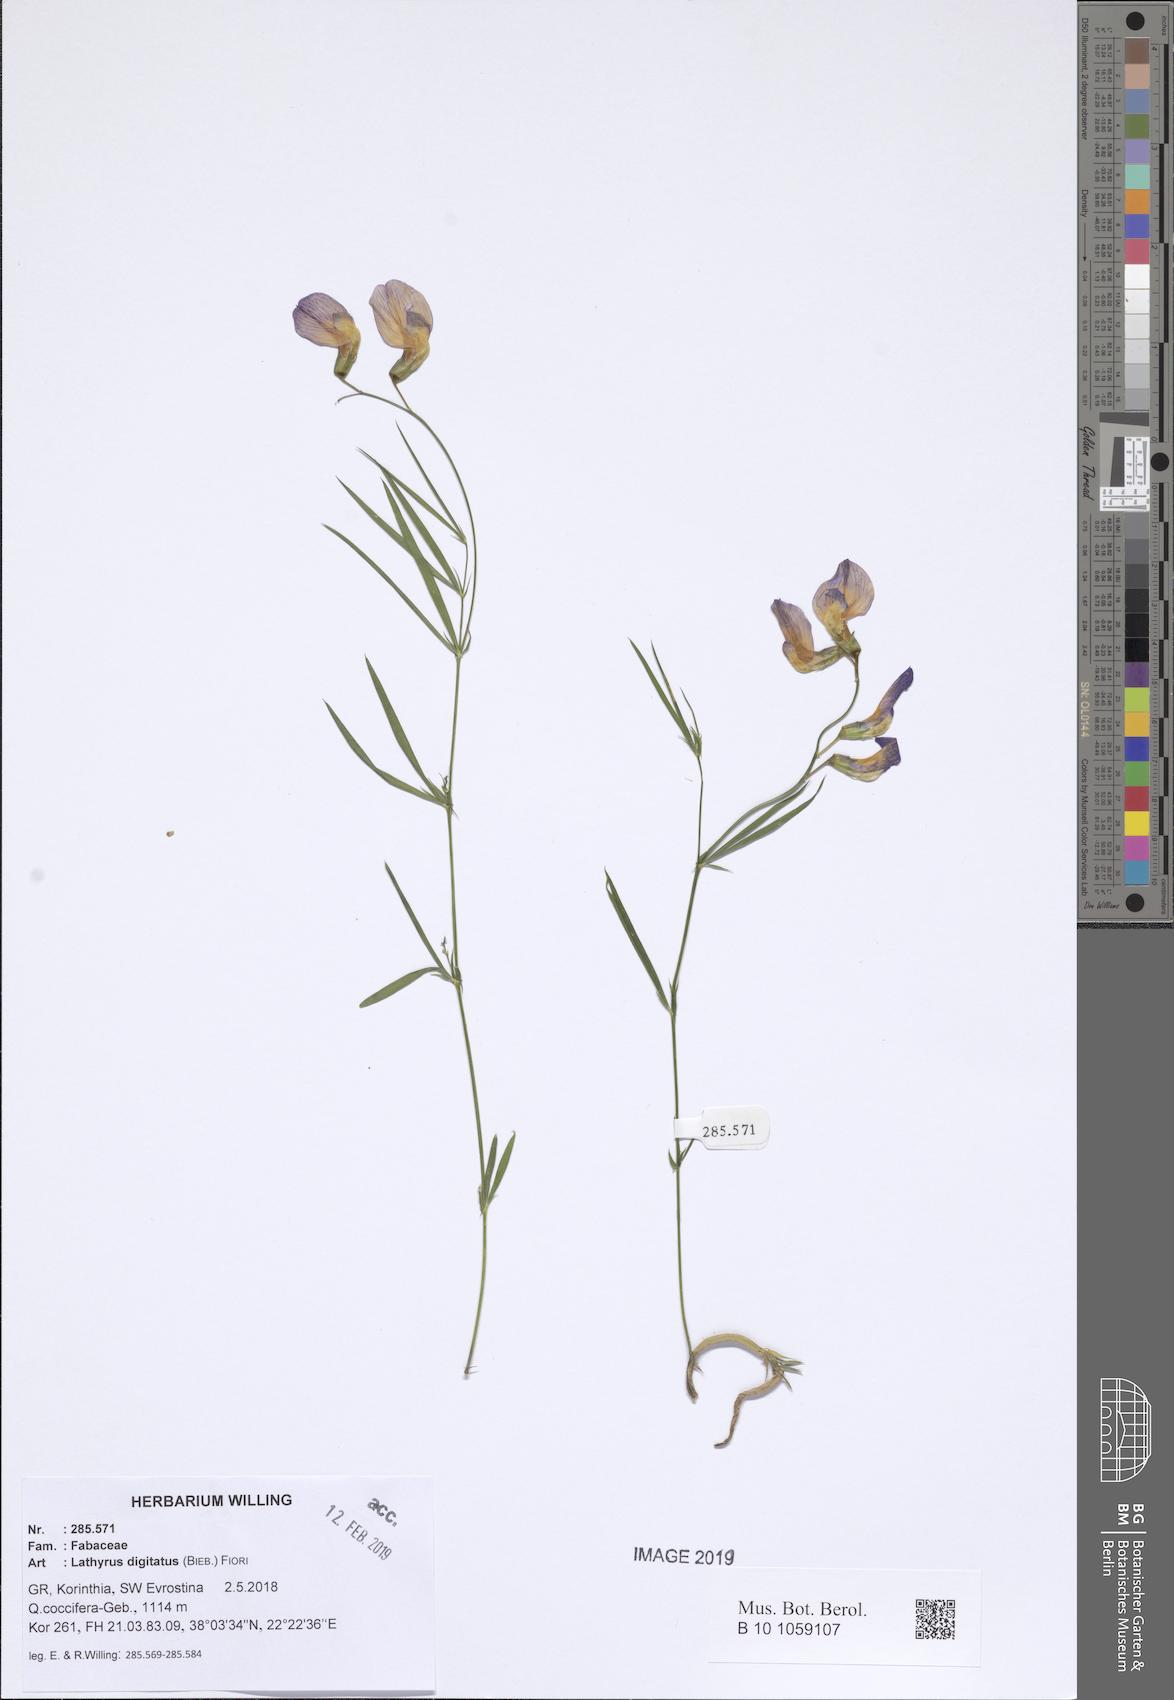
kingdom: Plantae
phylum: Tracheophyta
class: Magnoliopsida
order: Fabales
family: Fabaceae
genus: Lathyrus
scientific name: Lathyrus digitatus
